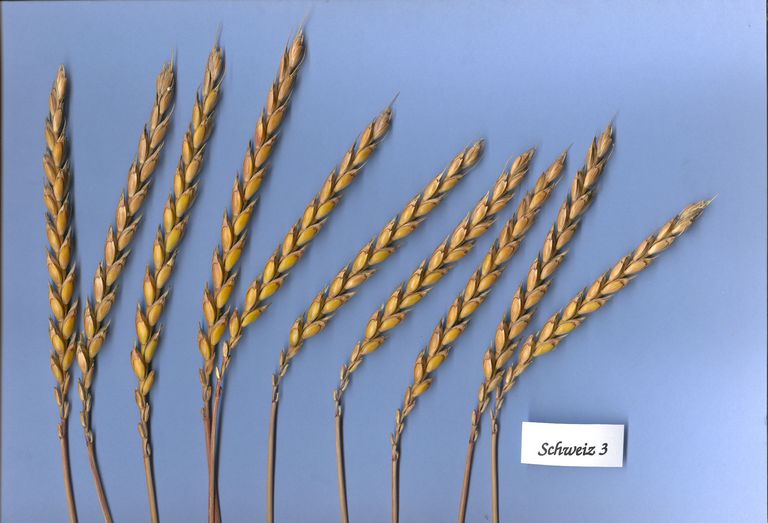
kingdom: Plantae
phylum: Tracheophyta
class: Liliopsida
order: Poales
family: Poaceae
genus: Triticum
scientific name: Triticum aestivum
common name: Common wheat
